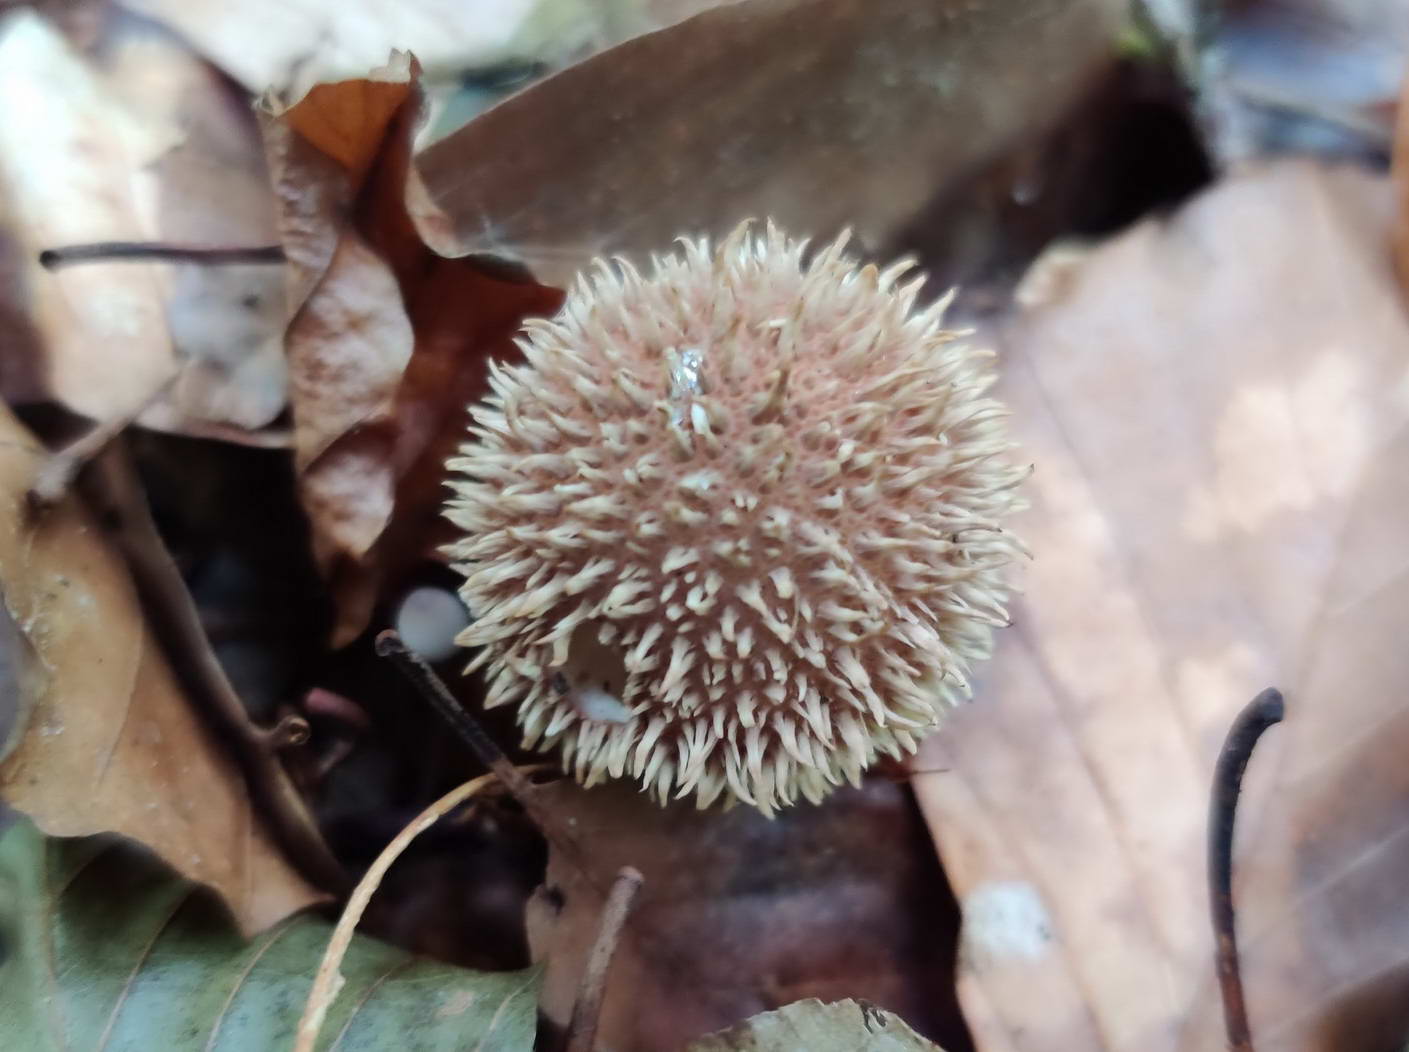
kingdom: Fungi
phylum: Basidiomycota
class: Agaricomycetes
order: Agaricales
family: Lycoperdaceae
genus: Lycoperdon
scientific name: Lycoperdon echinatum
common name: pindsvine-støvbold
